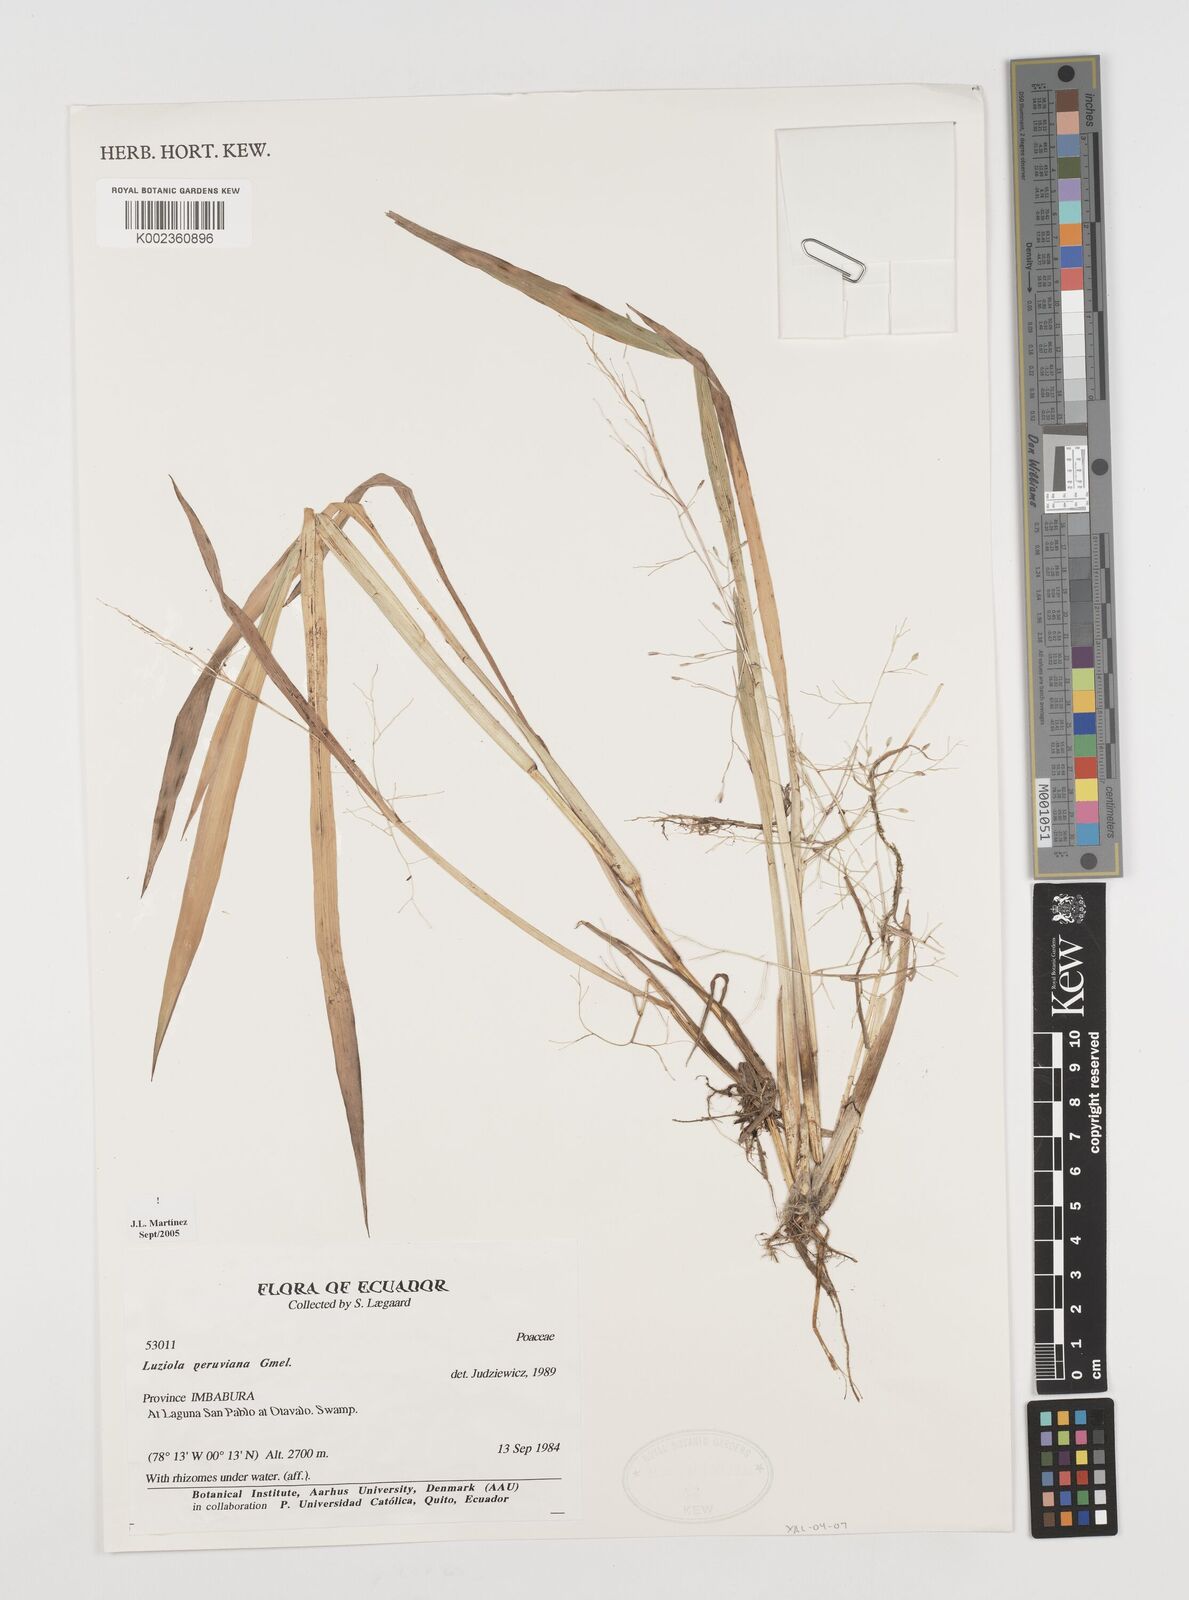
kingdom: Plantae
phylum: Tracheophyta
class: Liliopsida
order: Poales
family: Poaceae
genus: Luziola
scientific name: Luziola peruviana
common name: Peruvian watergrass
